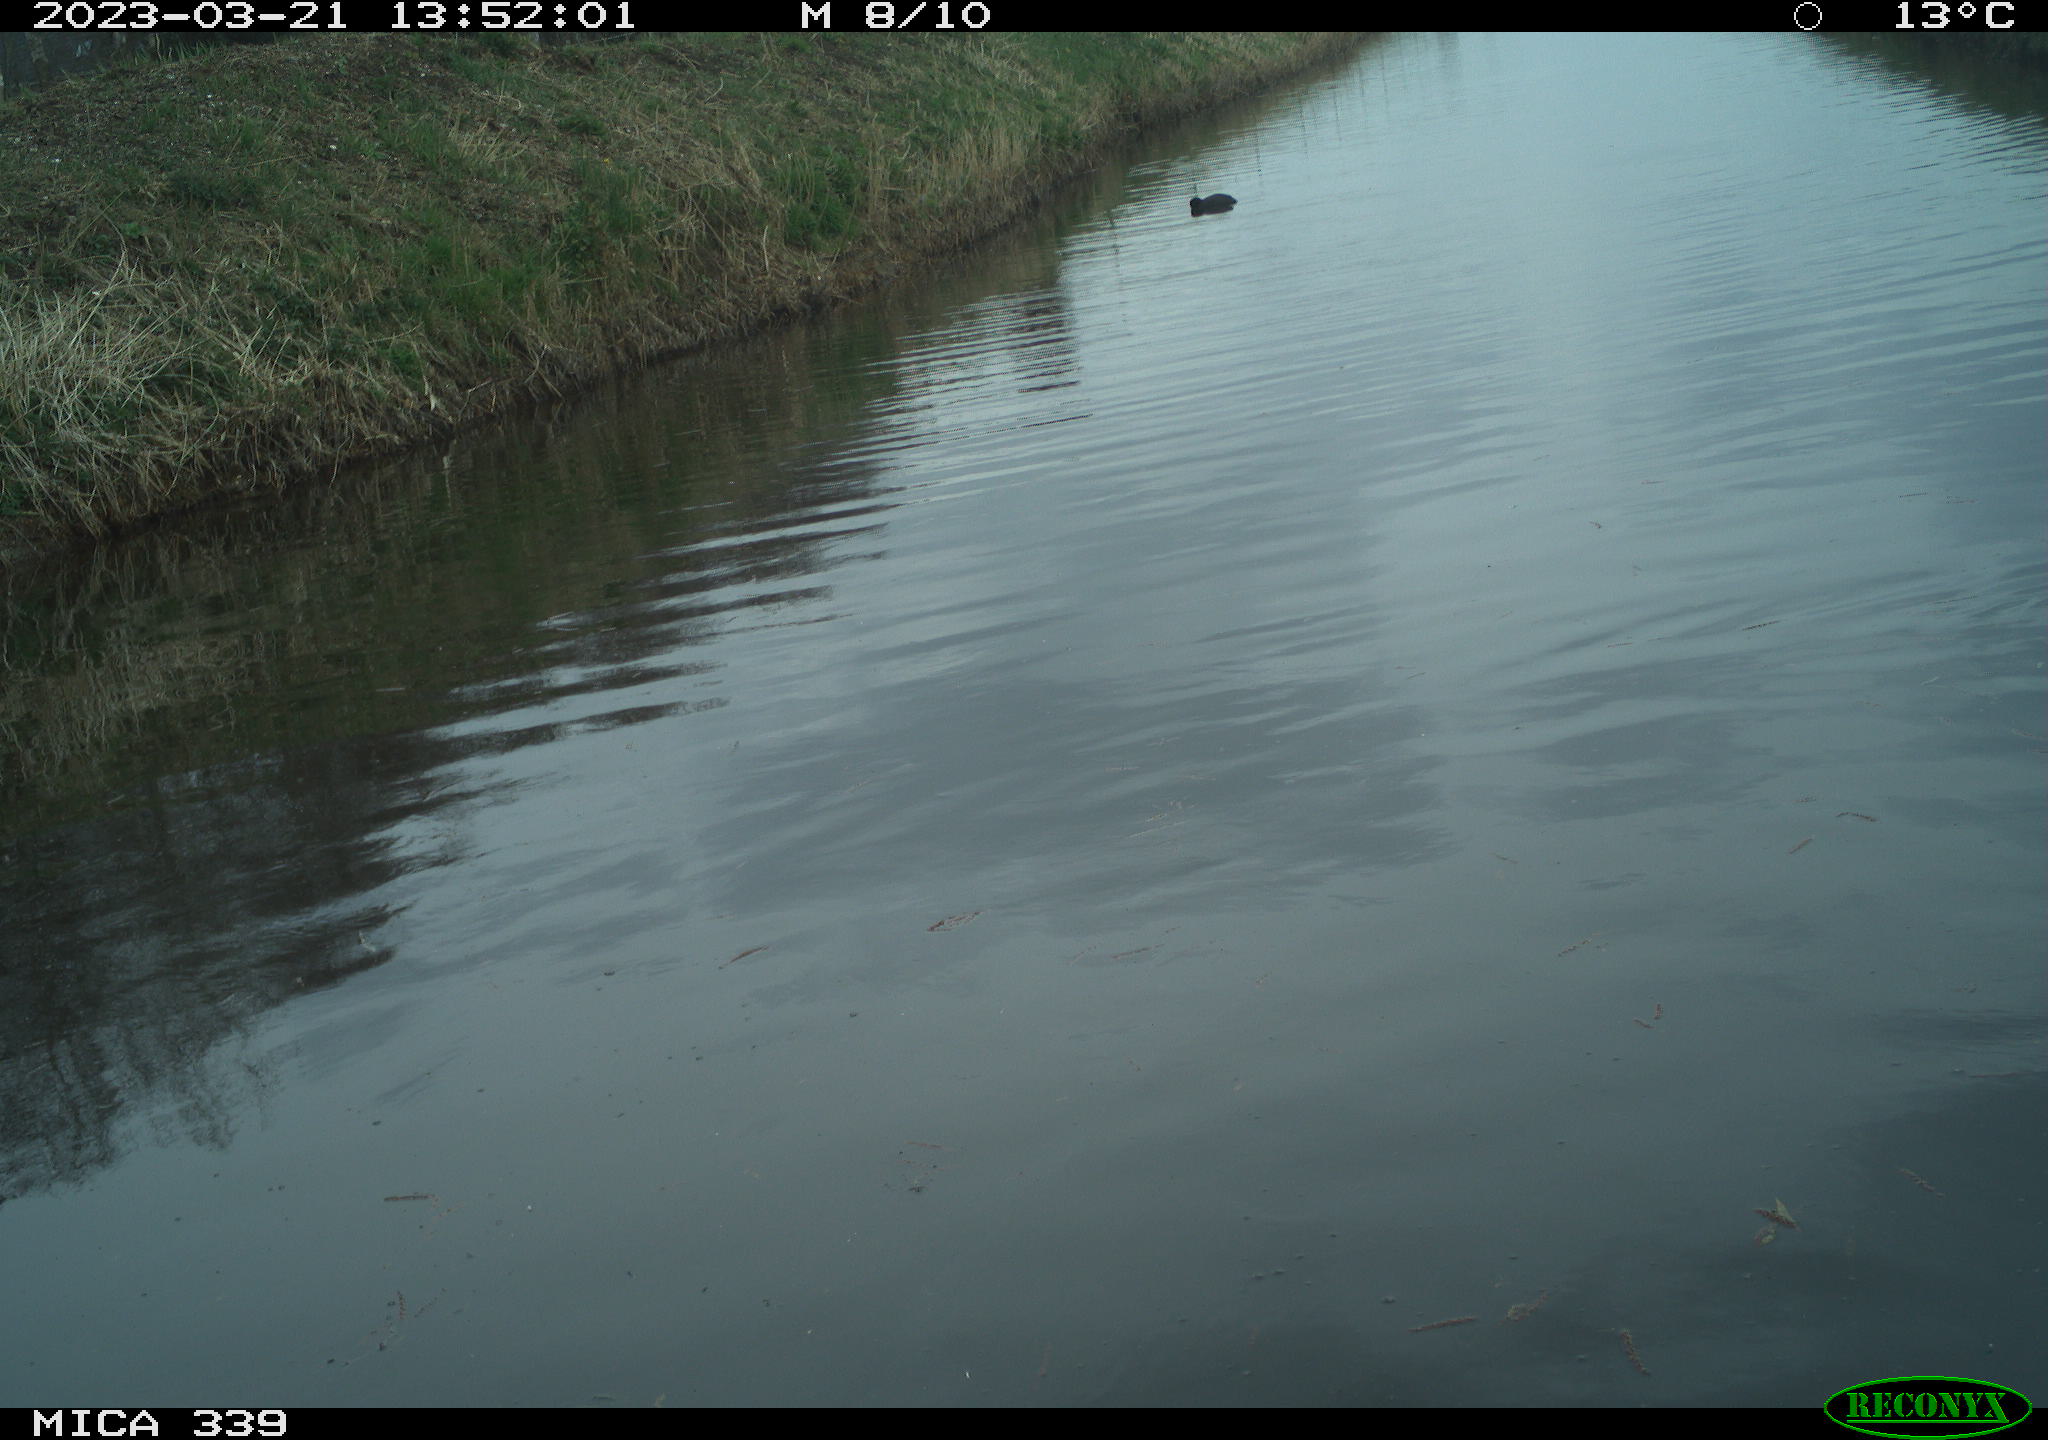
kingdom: Animalia
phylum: Chordata
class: Aves
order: Anseriformes
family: Anatidae
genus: Anas
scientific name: Anas
